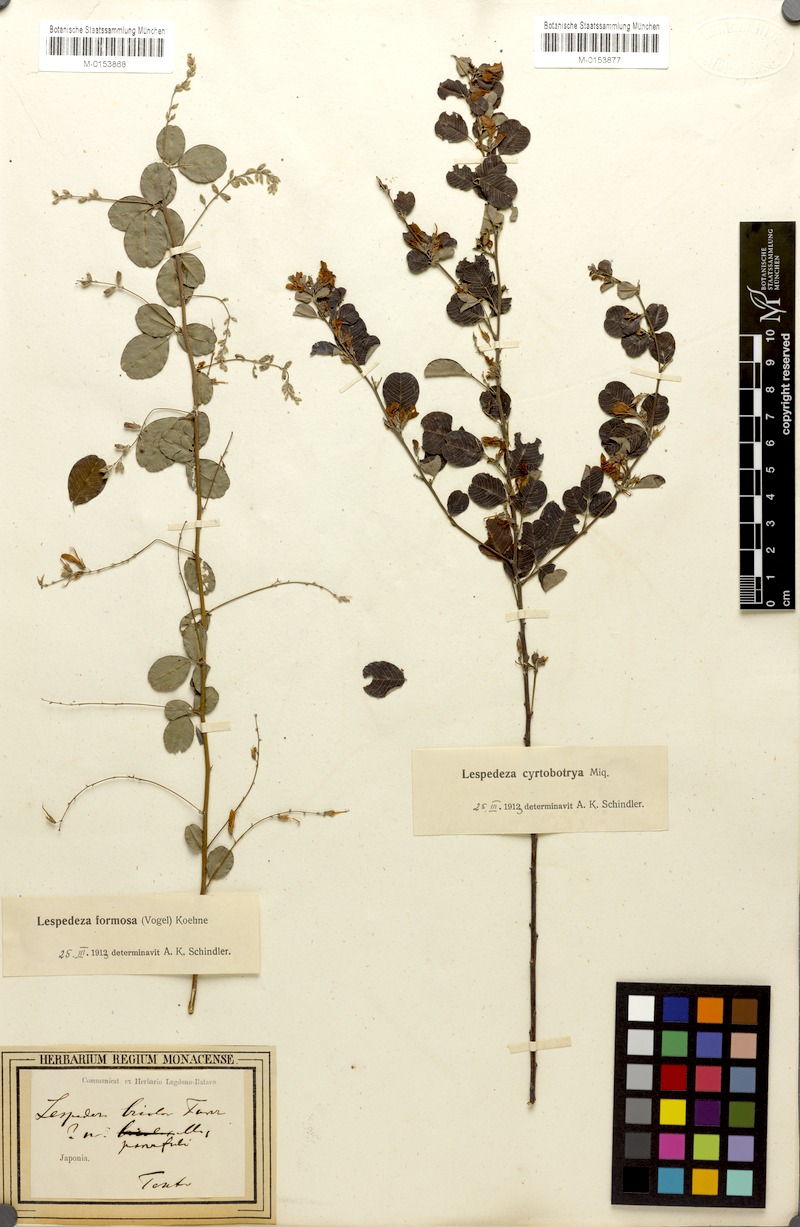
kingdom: Plantae
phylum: Tracheophyta
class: Magnoliopsida
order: Fabales
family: Fabaceae
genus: Lespedeza
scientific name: Lespedeza thunbergii
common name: Thunberg's lespedeza
